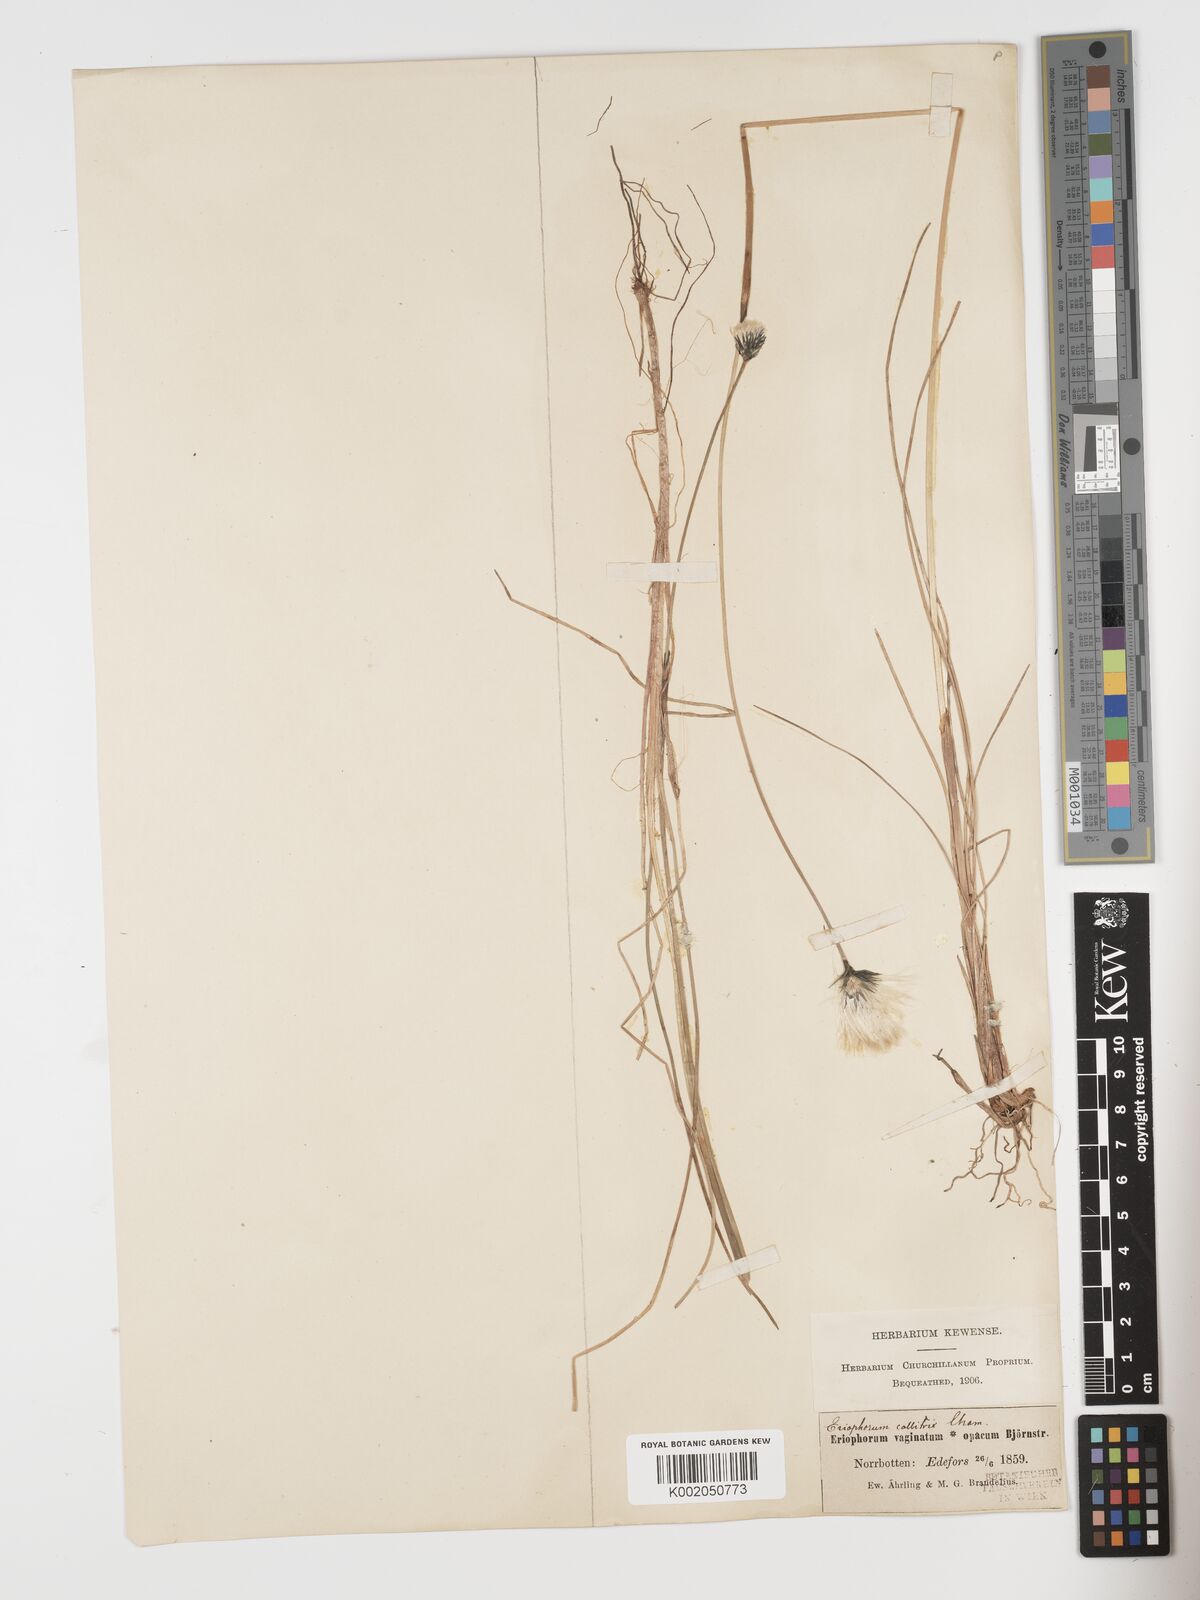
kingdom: Plantae
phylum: Tracheophyta
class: Liliopsida
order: Poales
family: Cyperaceae
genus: Eriophorum
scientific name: Eriophorum brachyantherum
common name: Closed-sheathed cottongrass
